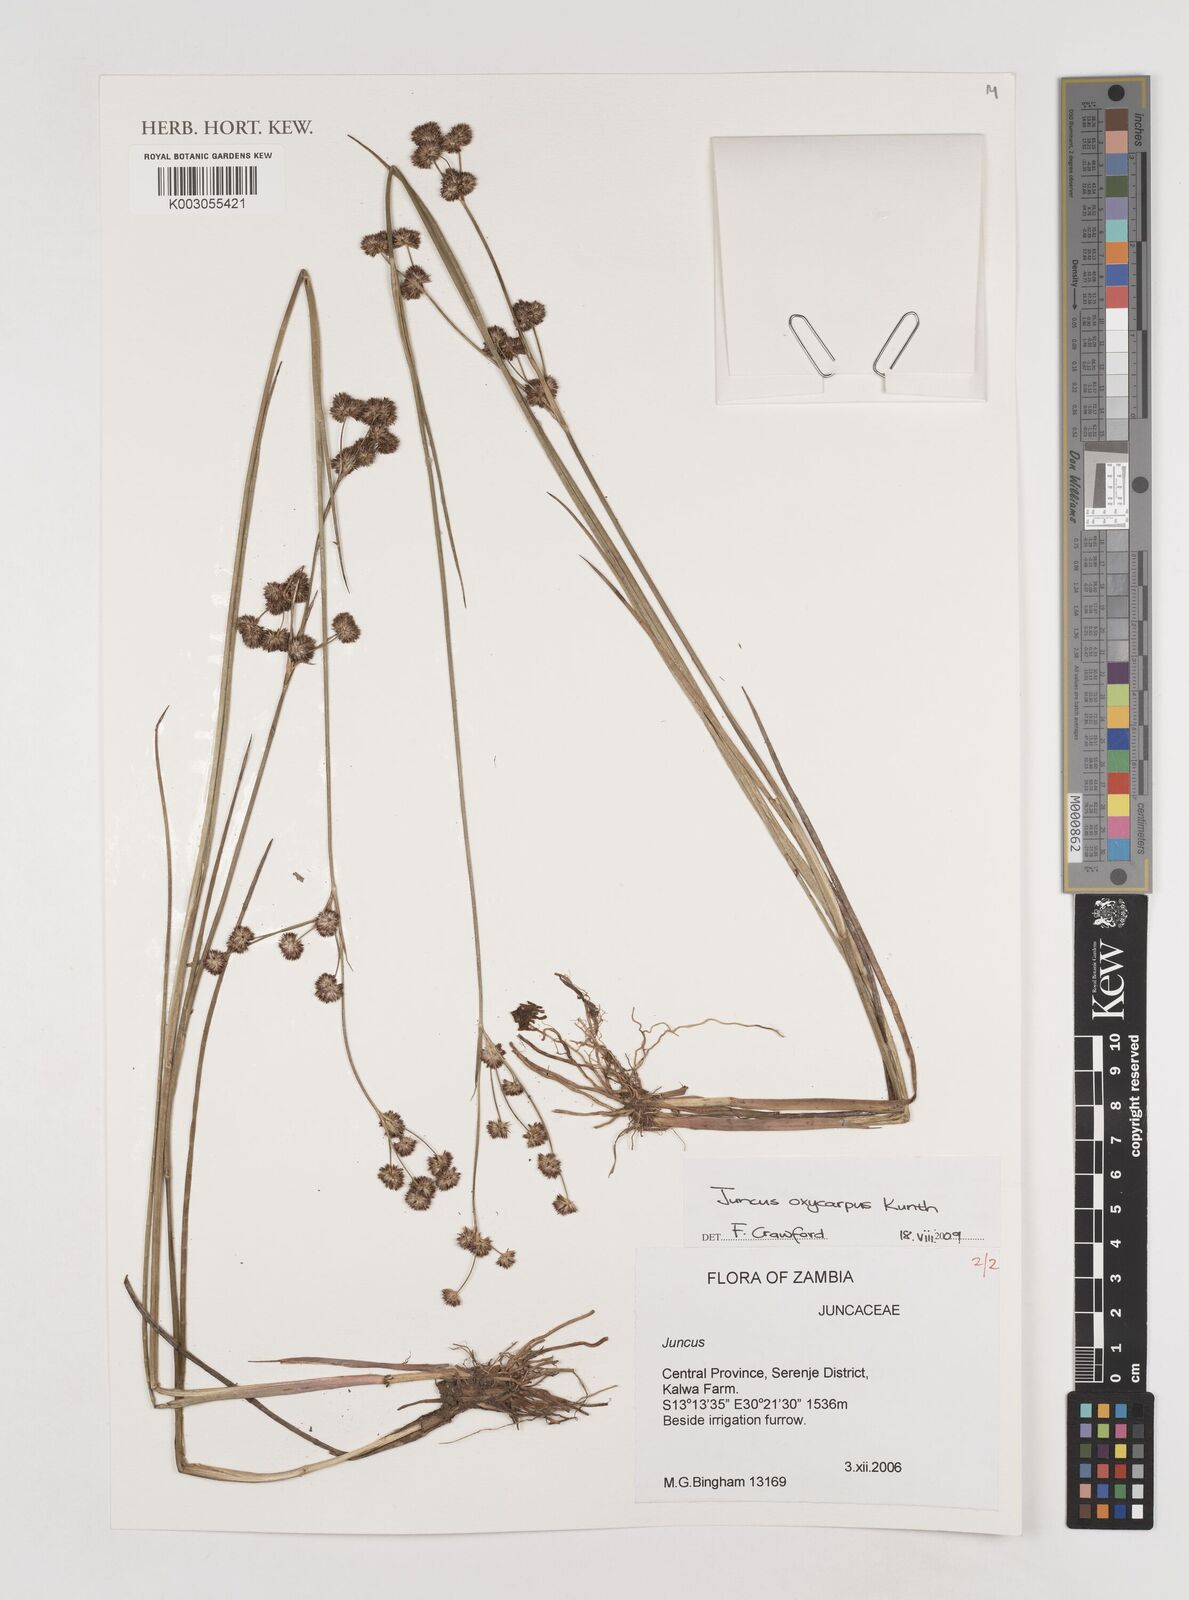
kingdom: Plantae
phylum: Tracheophyta
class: Liliopsida
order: Poales
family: Juncaceae
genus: Juncus
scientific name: Juncus oxycarpus
